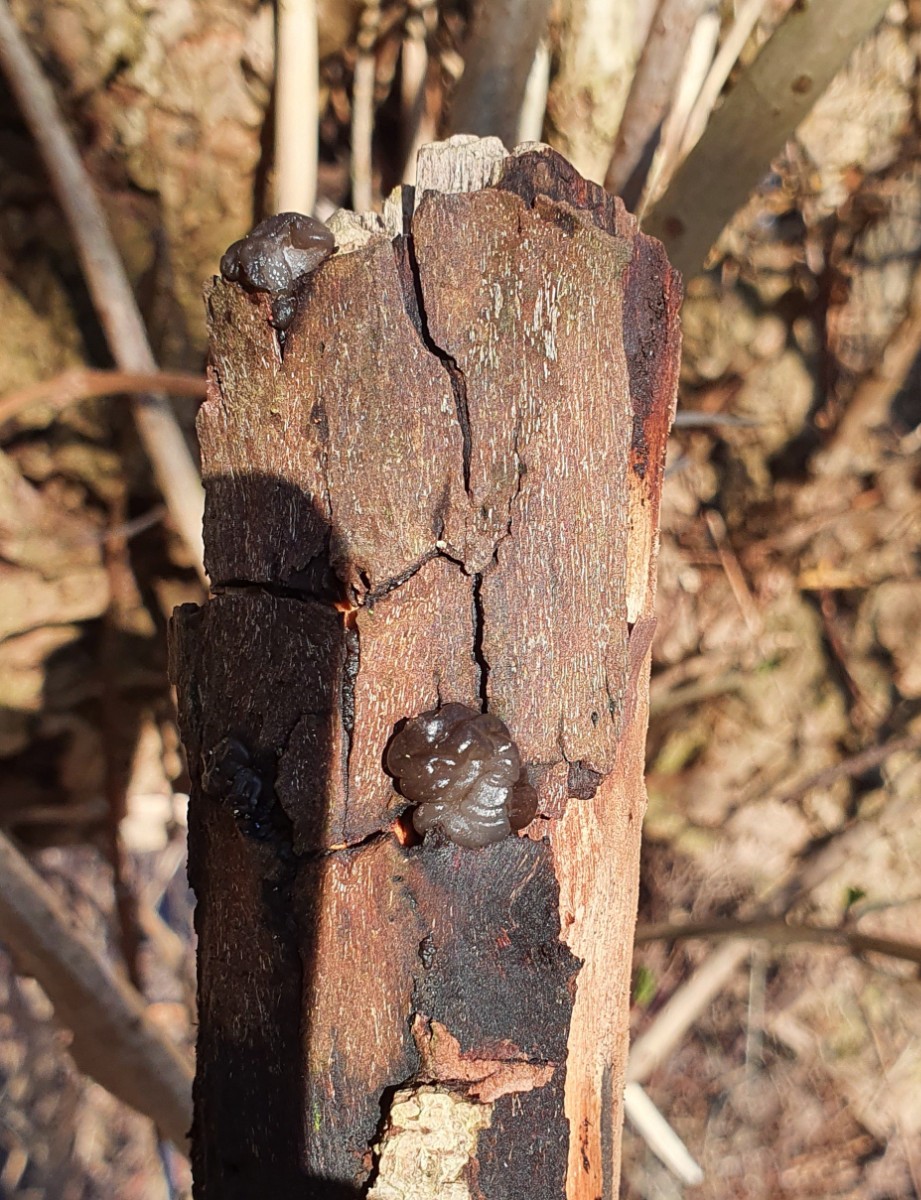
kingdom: Fungi
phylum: Basidiomycota
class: Agaricomycetes
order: Auriculariales
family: Auriculariaceae
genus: Exidia
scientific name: Exidia recisa
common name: pile-bævretop
